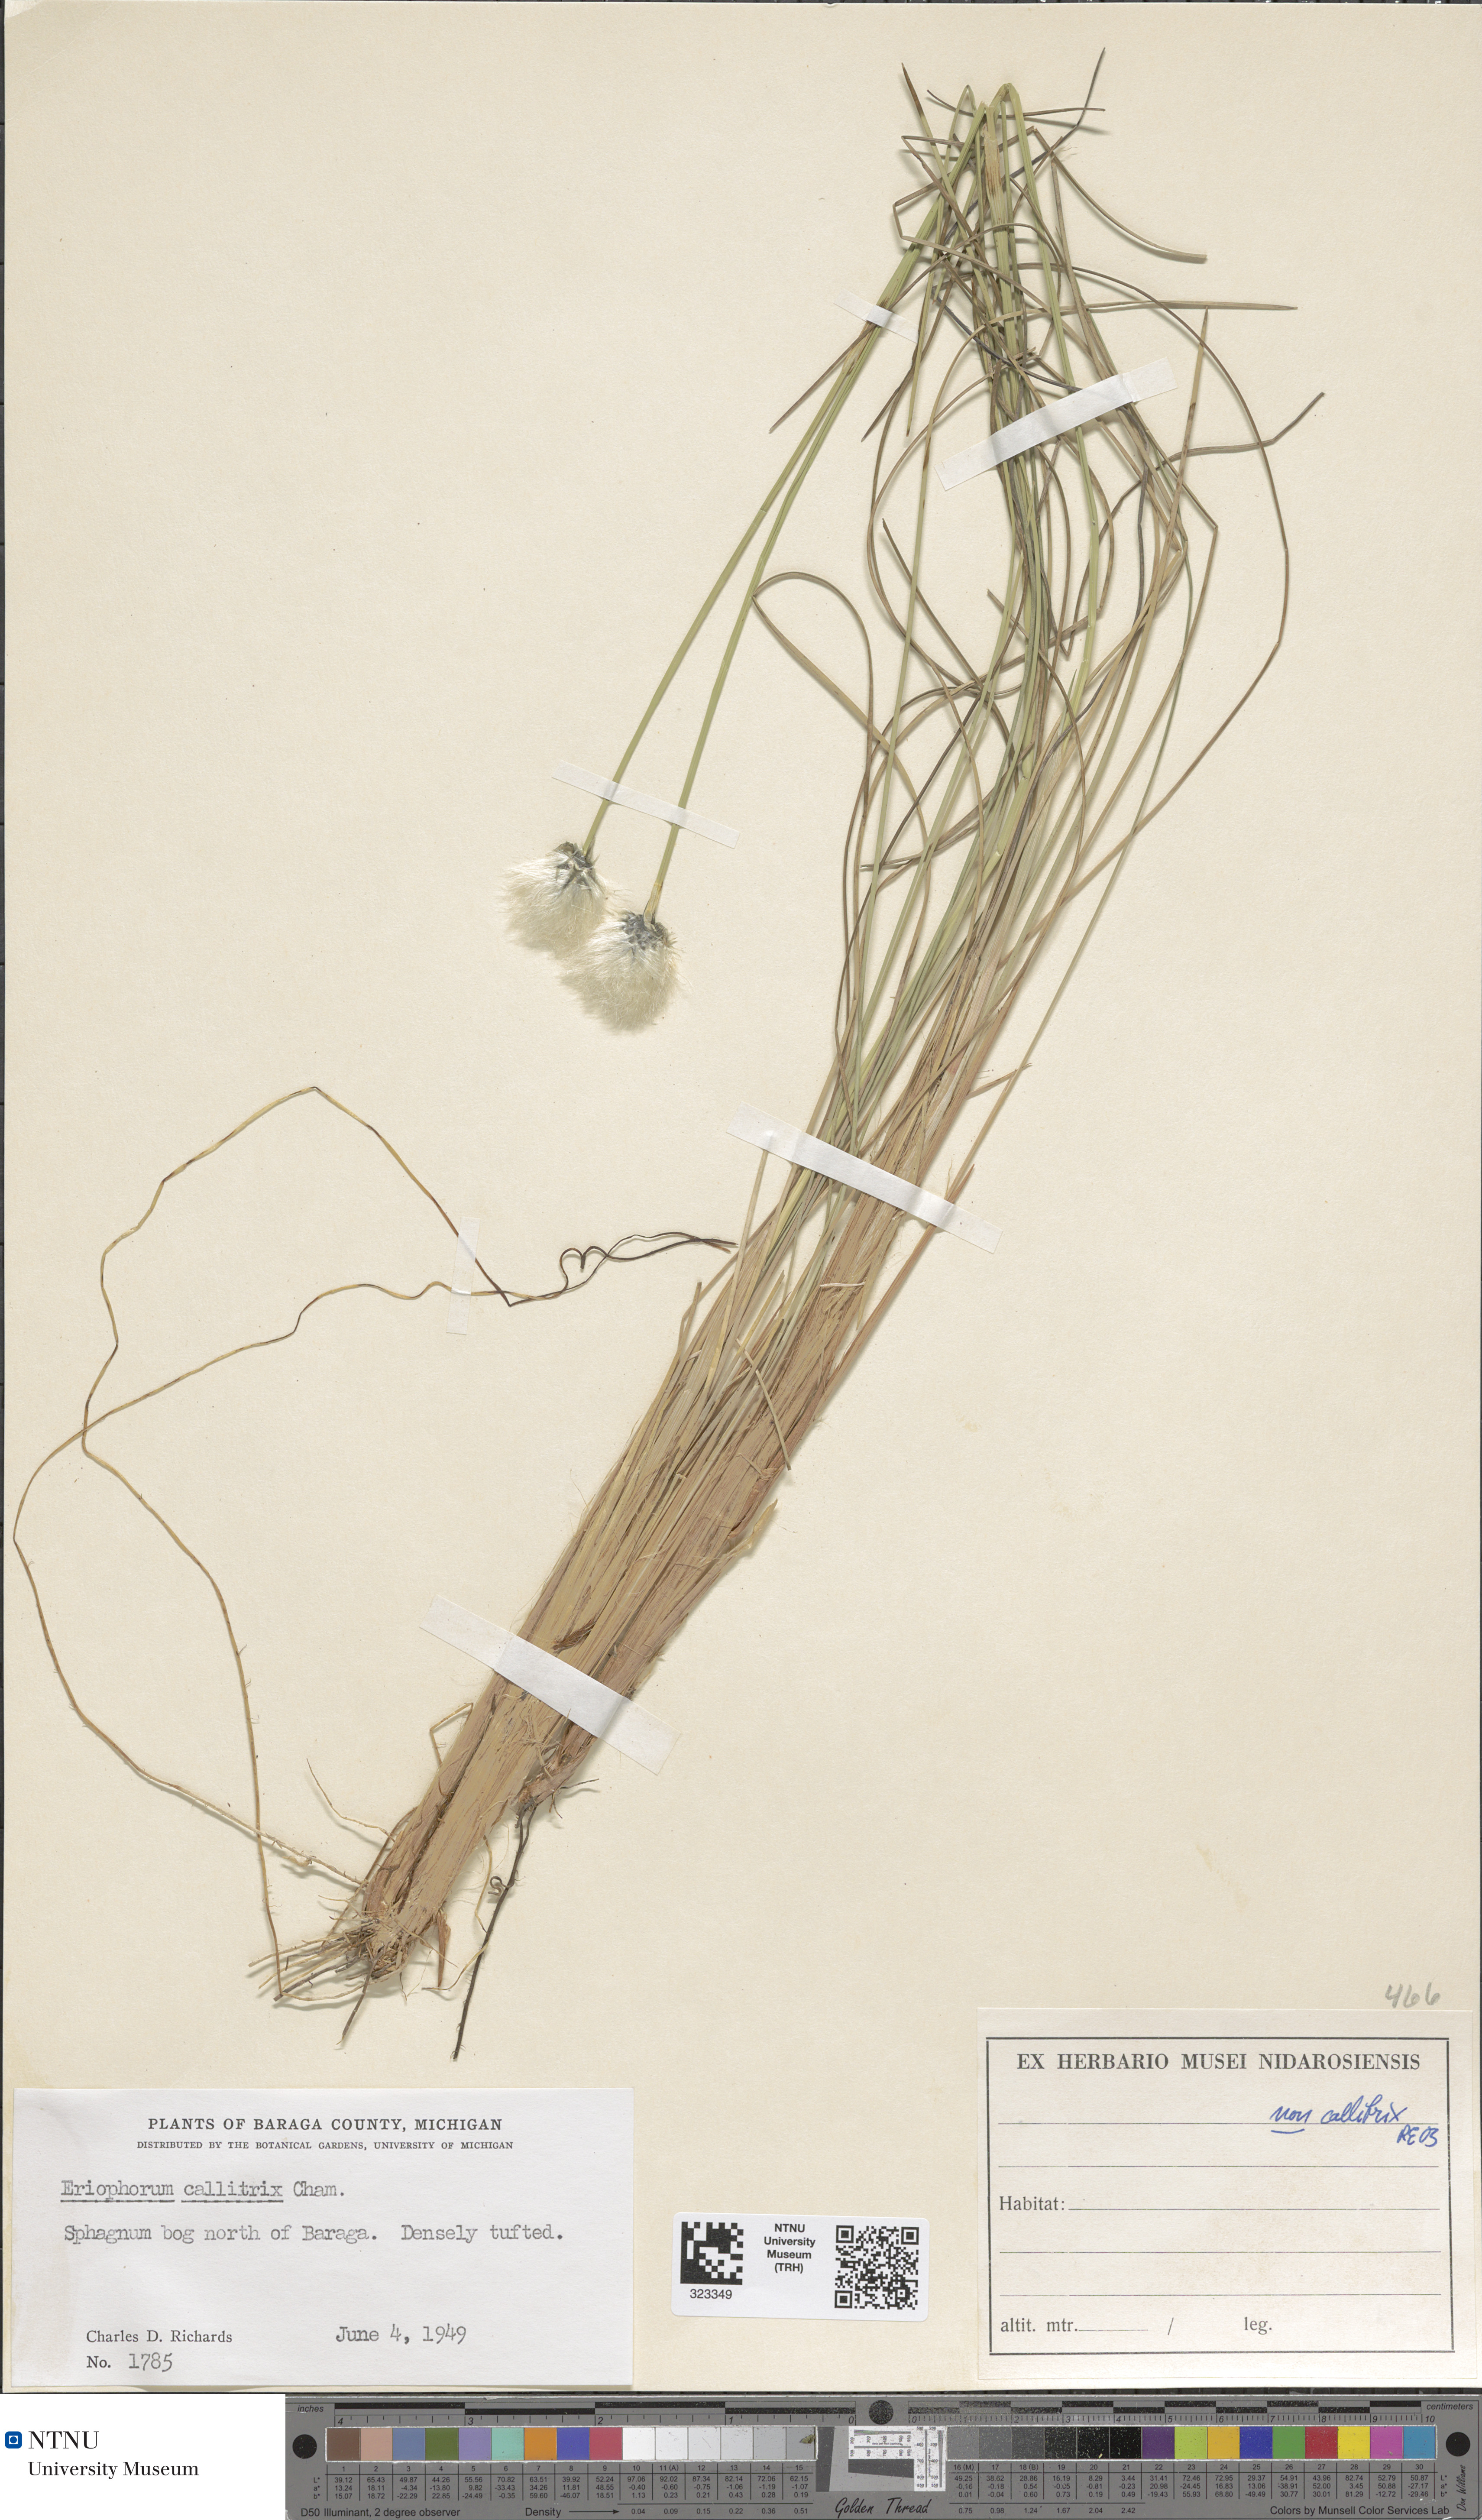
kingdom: Plantae
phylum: Tracheophyta
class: Liliopsida
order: Poales
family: Cyperaceae
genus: Eriophorum
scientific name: Eriophorum callitrix
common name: Arctic cottongrass
